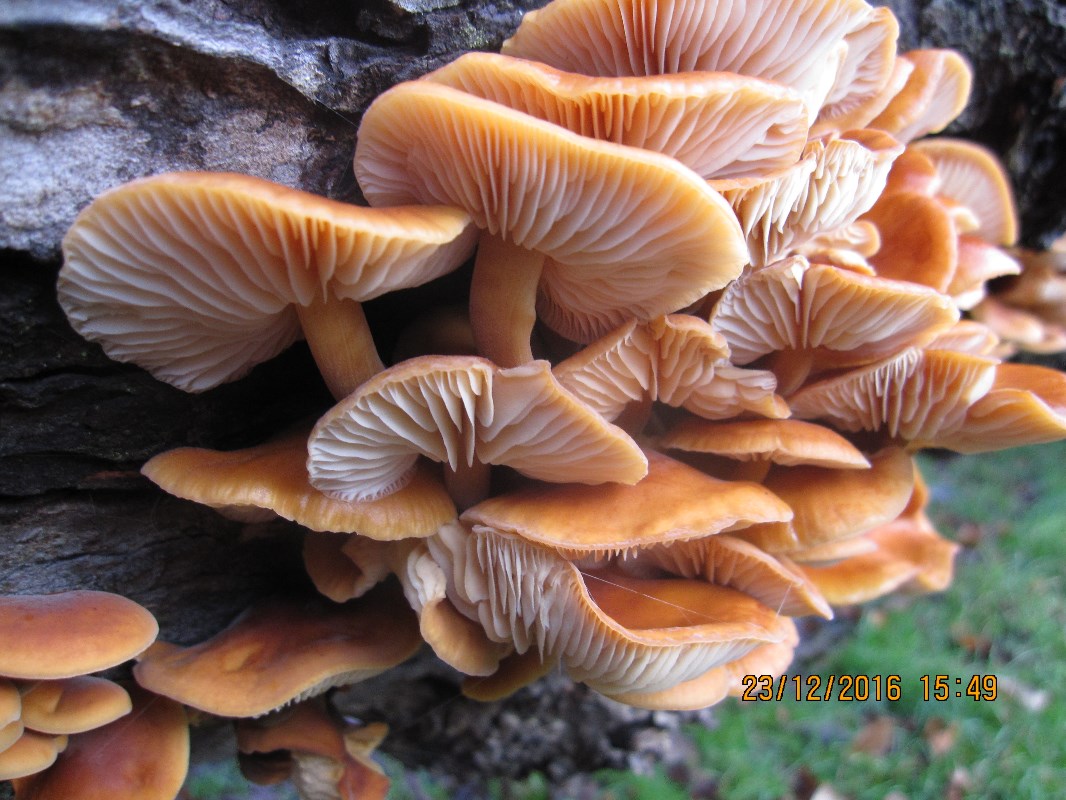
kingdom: Fungi
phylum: Basidiomycota
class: Agaricomycetes
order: Agaricales
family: Physalacriaceae
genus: Flammulina
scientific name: Flammulina velutipes
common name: gul fløjlsfod
